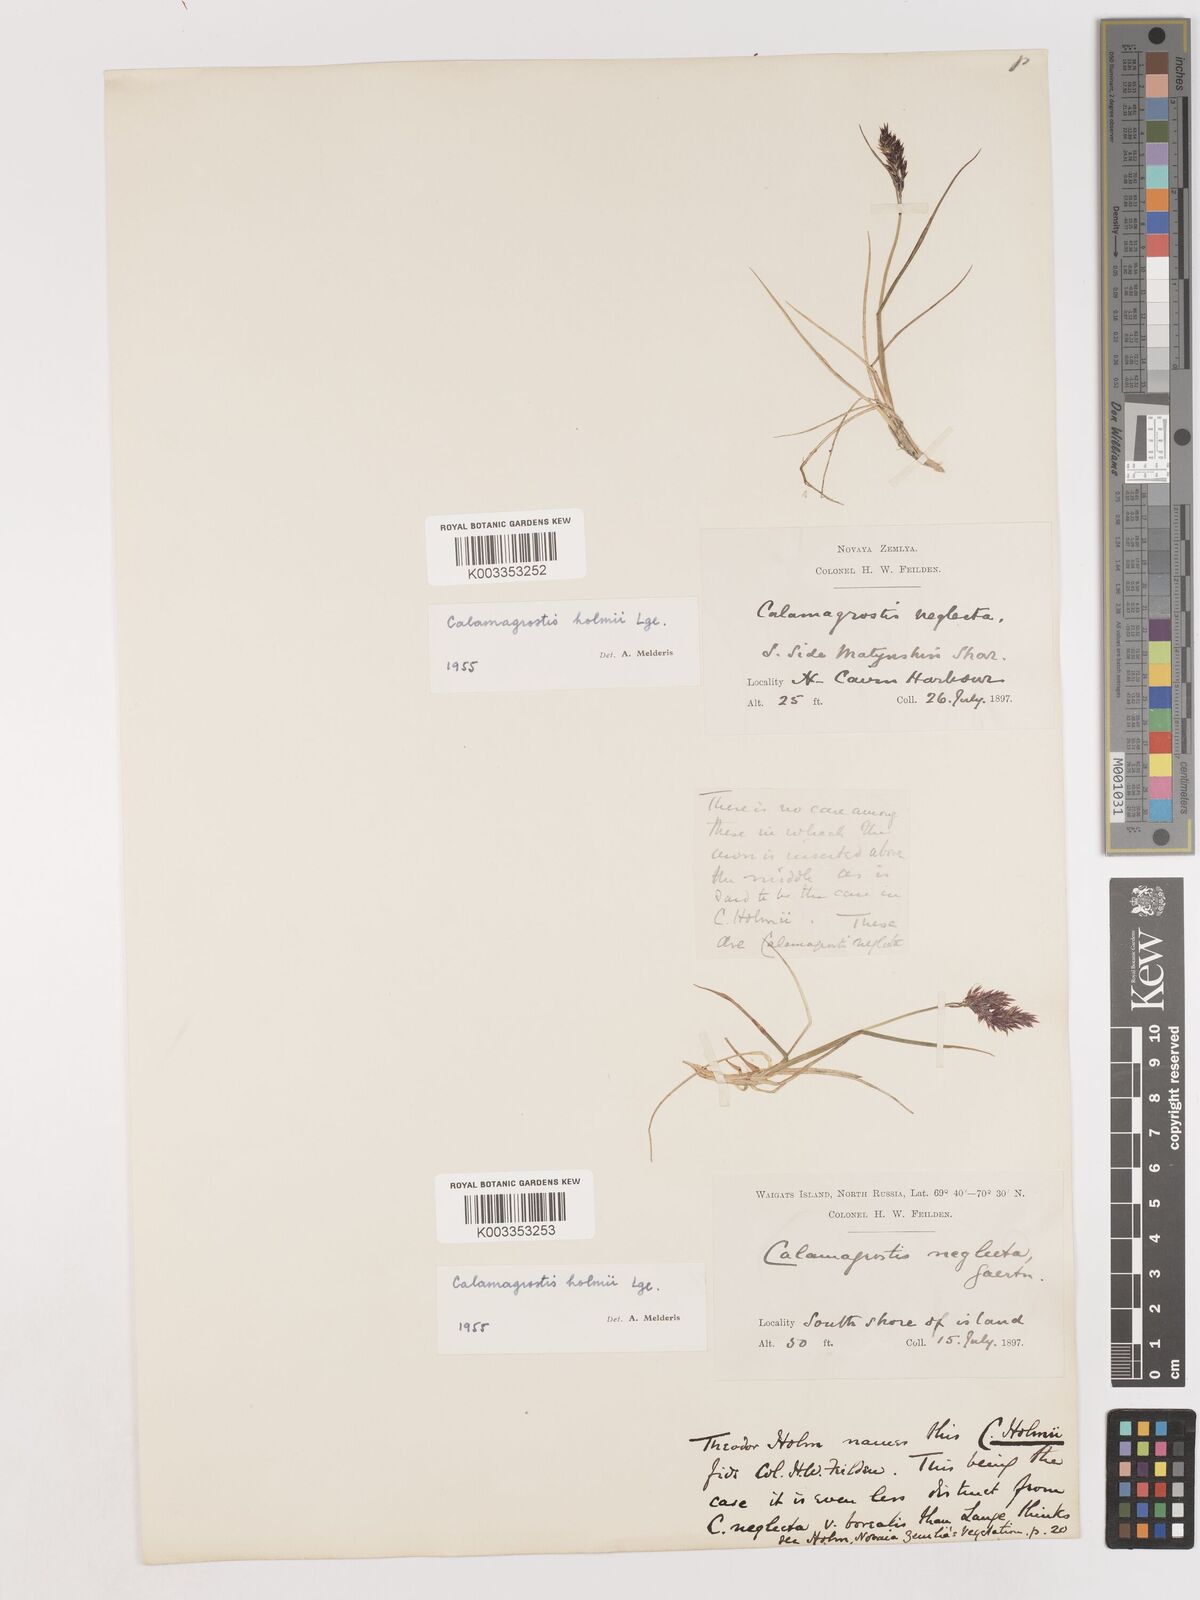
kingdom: Plantae
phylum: Tracheophyta
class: Liliopsida
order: Poales
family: Poaceae
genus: Calamagrostis
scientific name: Calamagrostis
